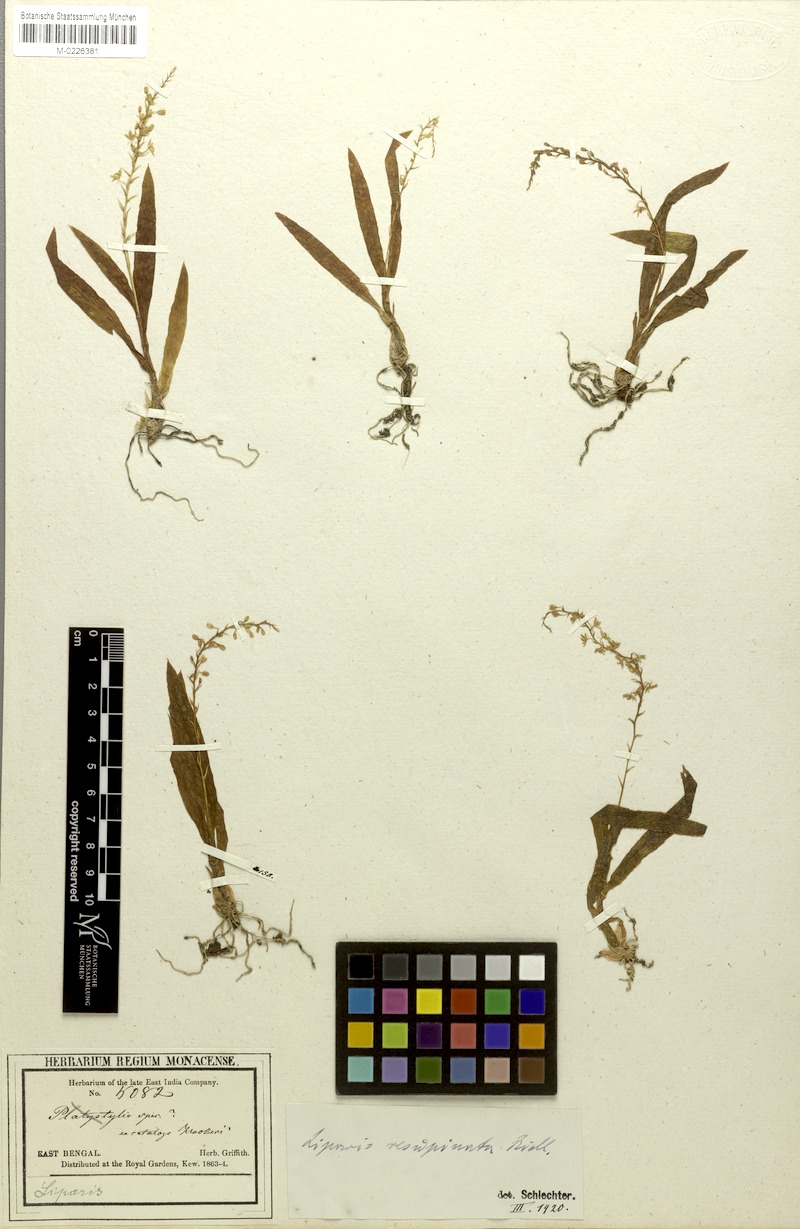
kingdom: Plantae
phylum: Tracheophyta
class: Liliopsida
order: Asparagales
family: Orchidaceae
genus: Liparis
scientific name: Liparis resupinata
